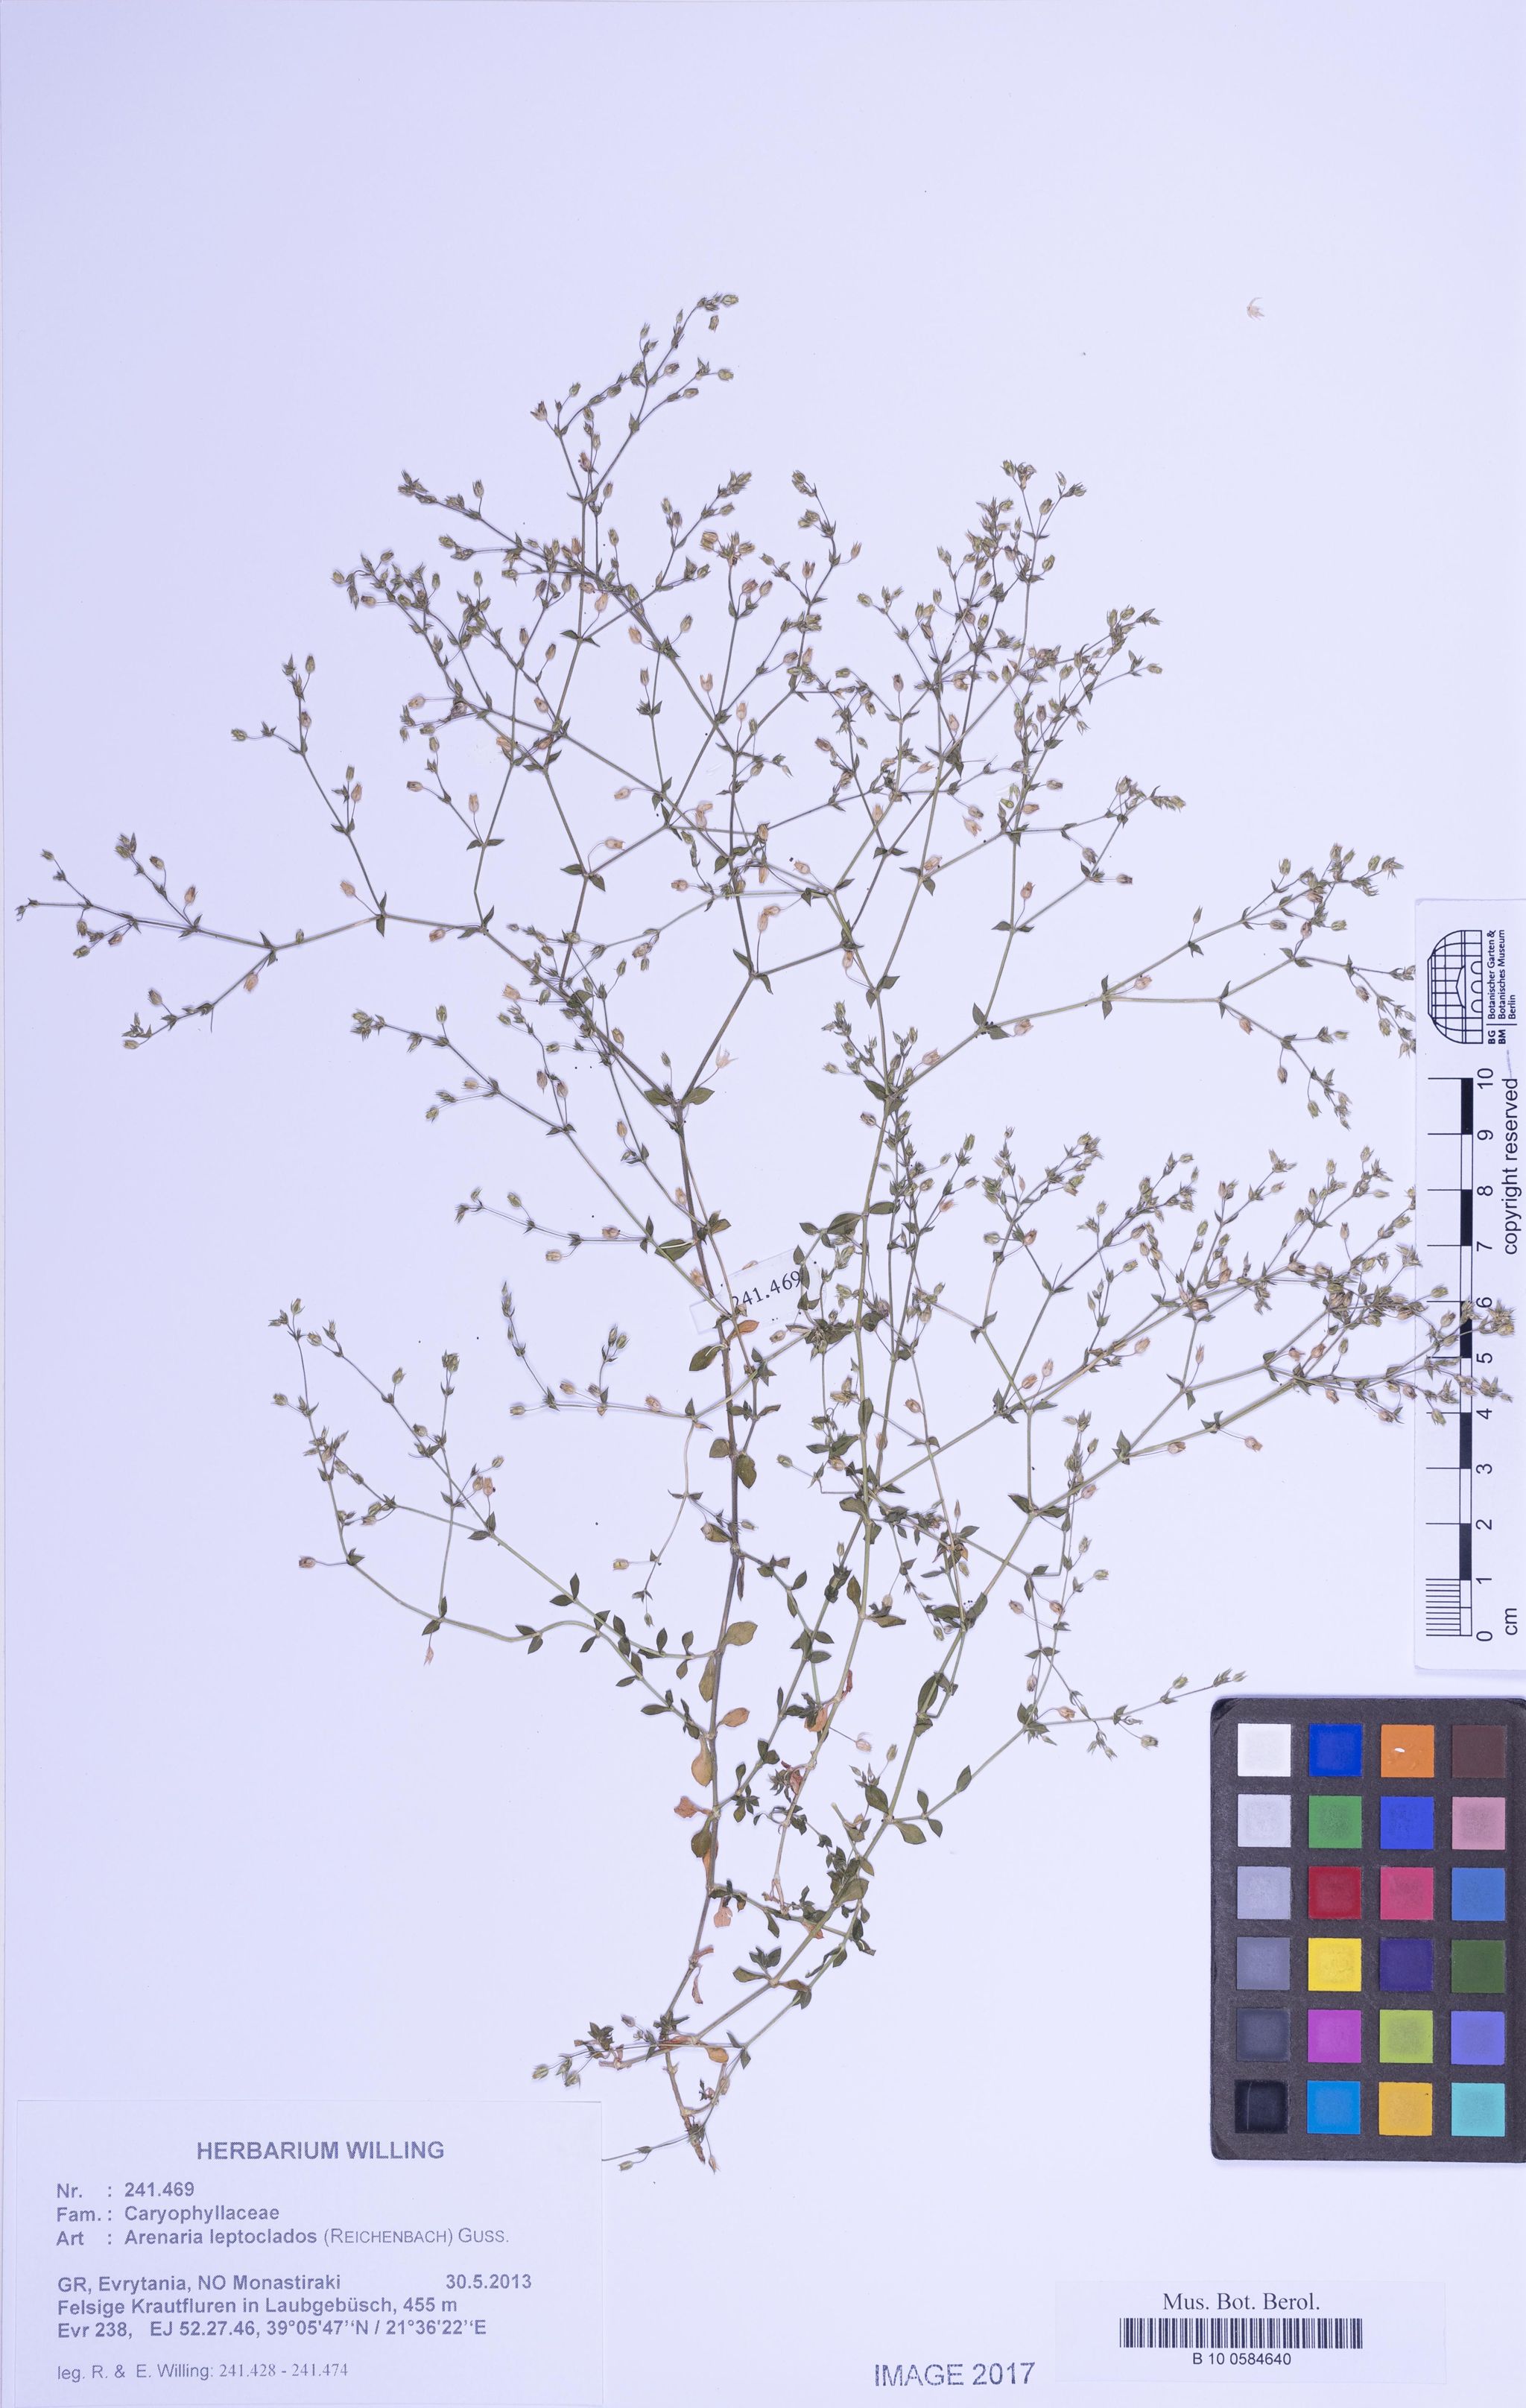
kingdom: Plantae
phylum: Tracheophyta
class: Magnoliopsida
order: Caryophyllales
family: Caryophyllaceae
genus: Arenaria
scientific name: Arenaria leptoclados
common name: Thyme-leaved sandwort
